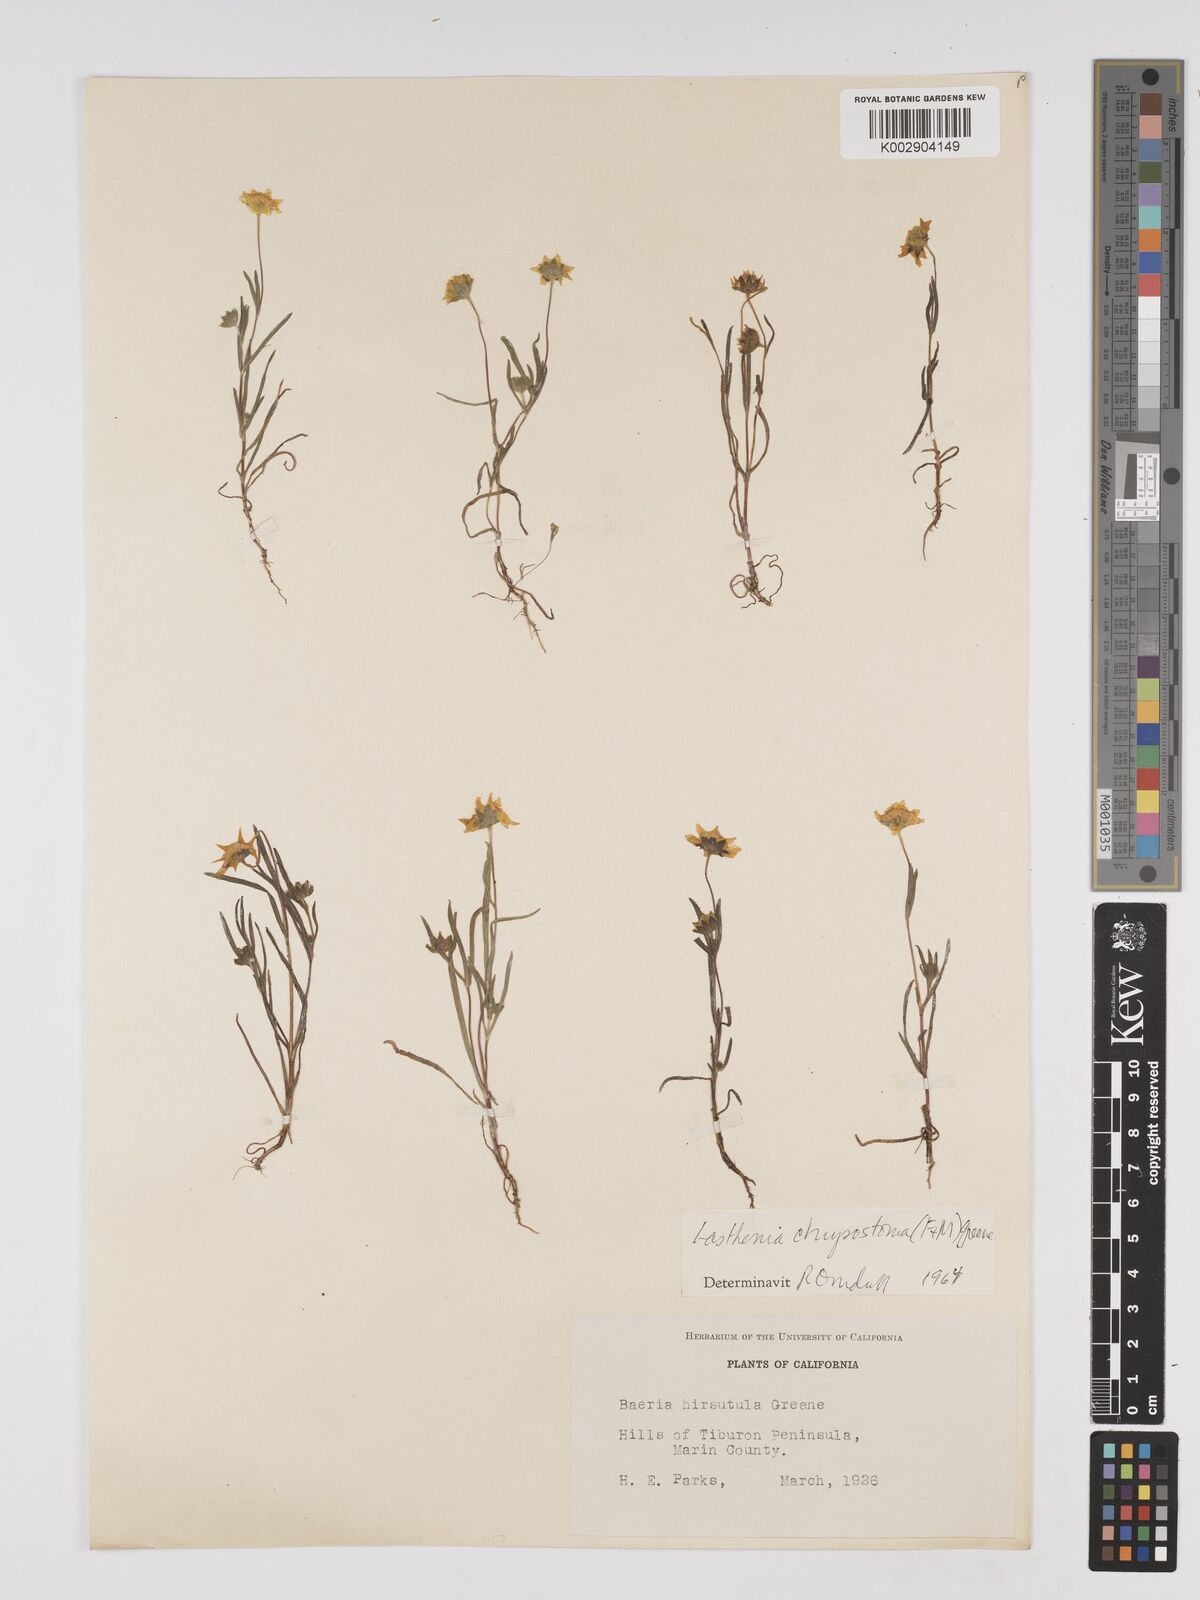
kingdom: Plantae
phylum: Tracheophyta
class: Magnoliopsida
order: Asterales
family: Asteraceae
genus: Lasthenia
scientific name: Lasthenia californica
